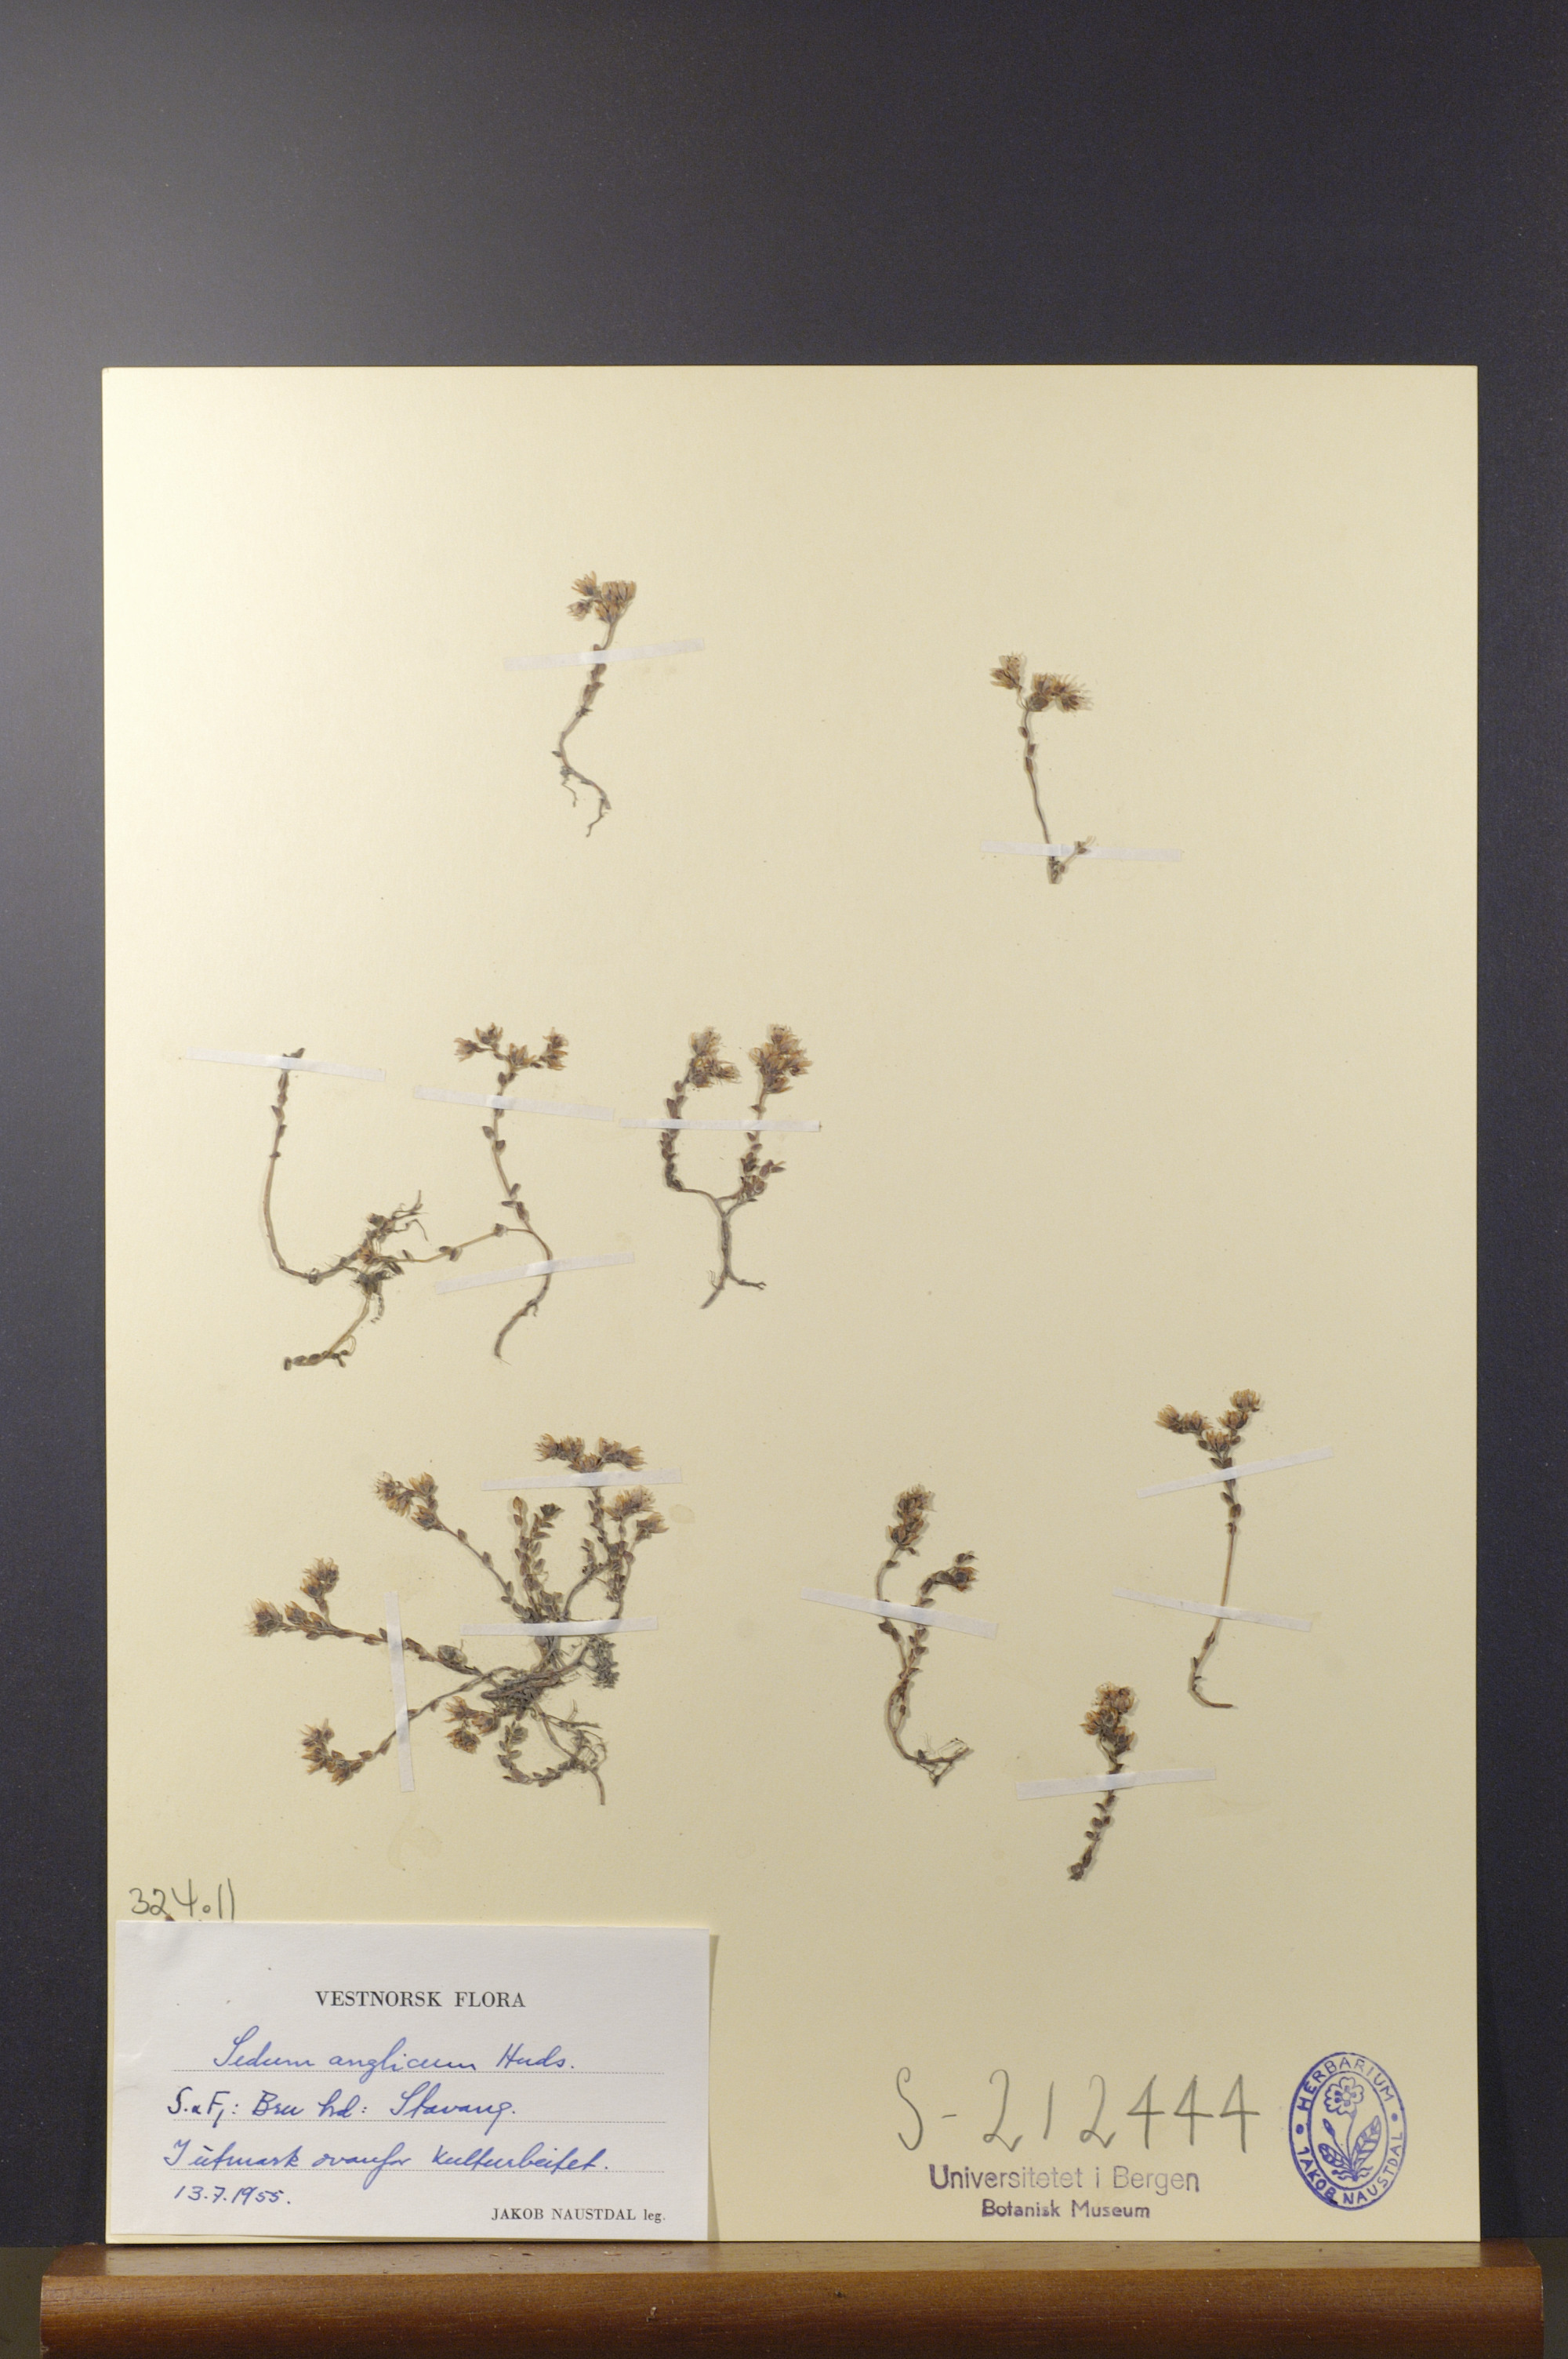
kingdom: Plantae
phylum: Tracheophyta
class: Magnoliopsida
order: Saxifragales
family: Crassulaceae
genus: Sedum
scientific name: Sedum anglicum
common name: English stonecrop
